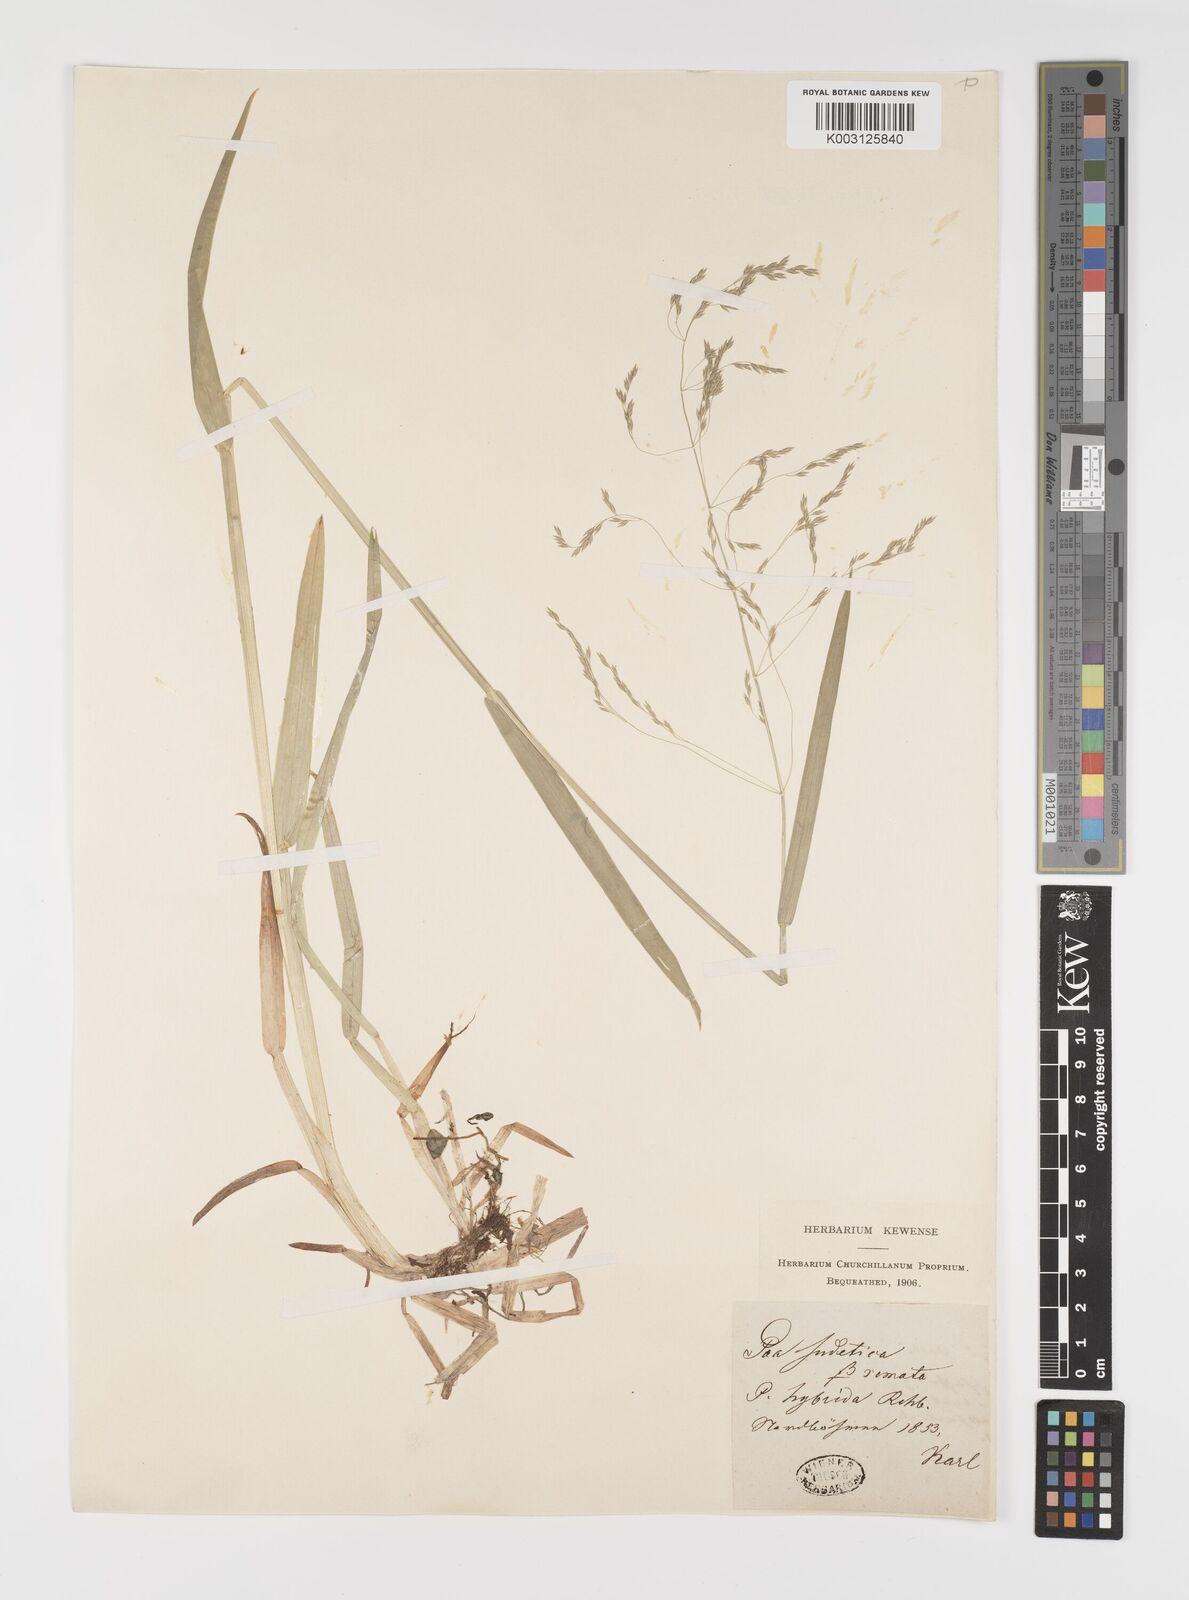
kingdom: Plantae
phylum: Tracheophyta
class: Liliopsida
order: Poales
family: Poaceae
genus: Poa
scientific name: Poa remota
